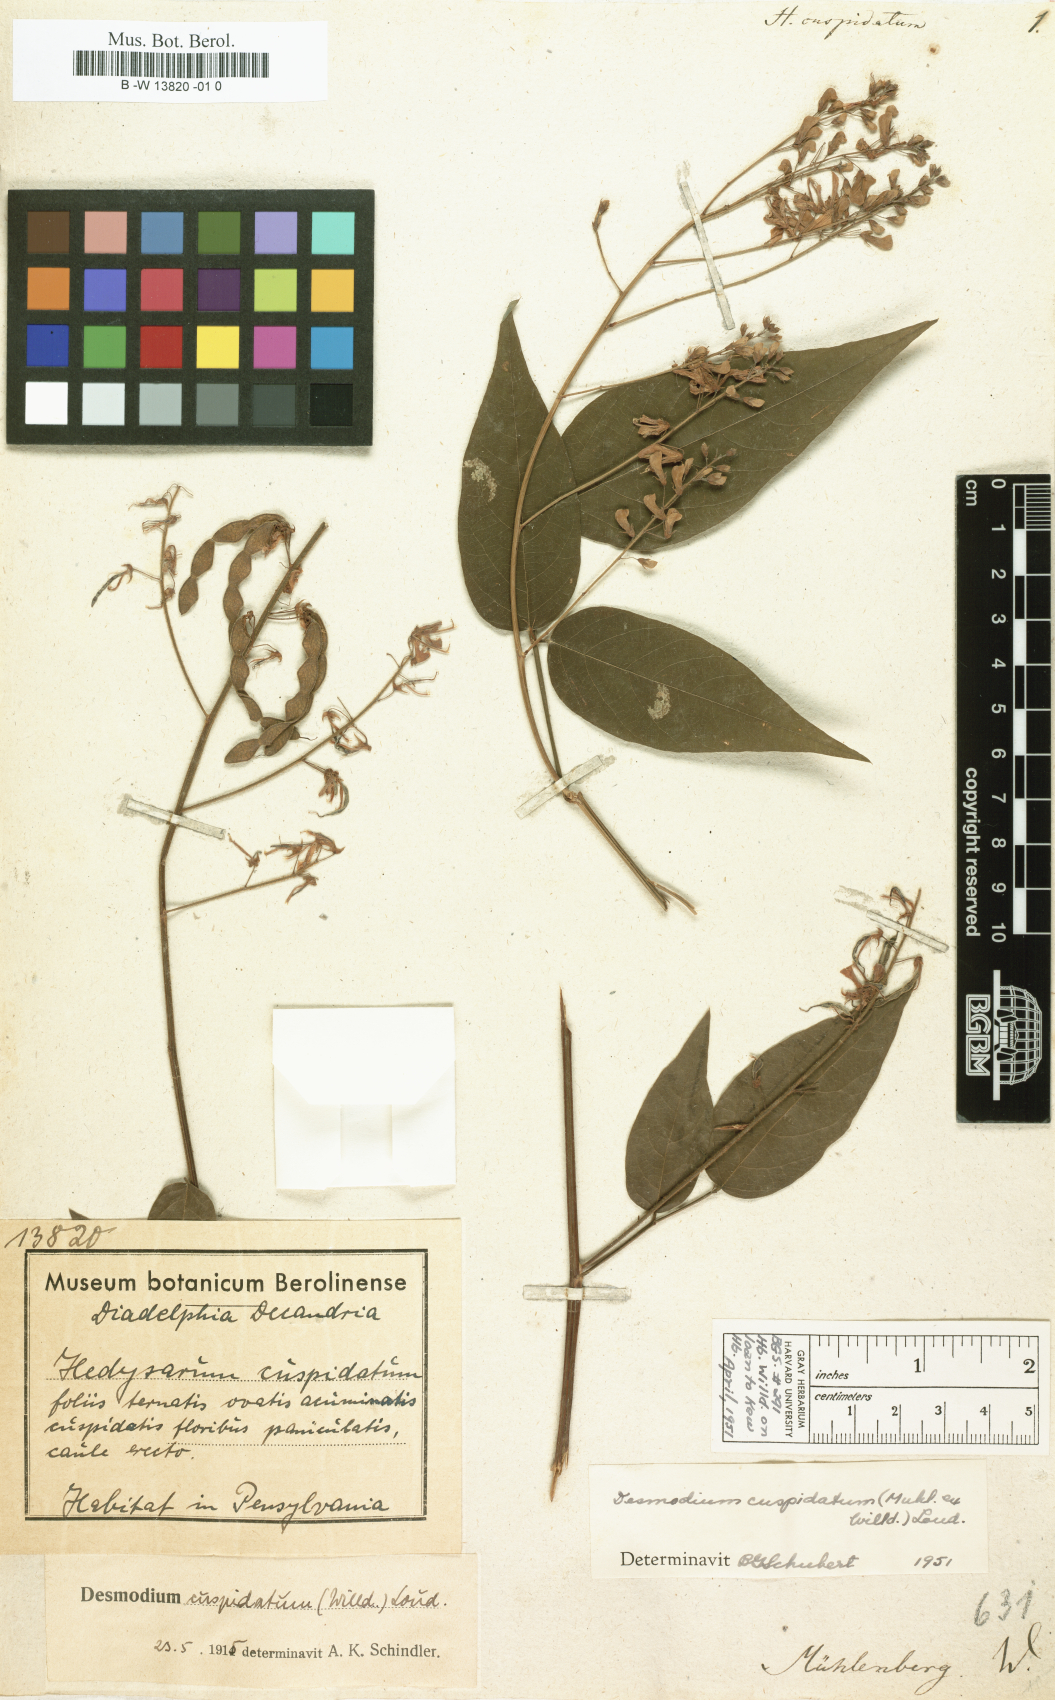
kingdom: Plantae
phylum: Tracheophyta
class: Magnoliopsida
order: Fabales
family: Fabaceae
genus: Desmodium
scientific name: Desmodium cuspidatum
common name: Big tick trefoil
